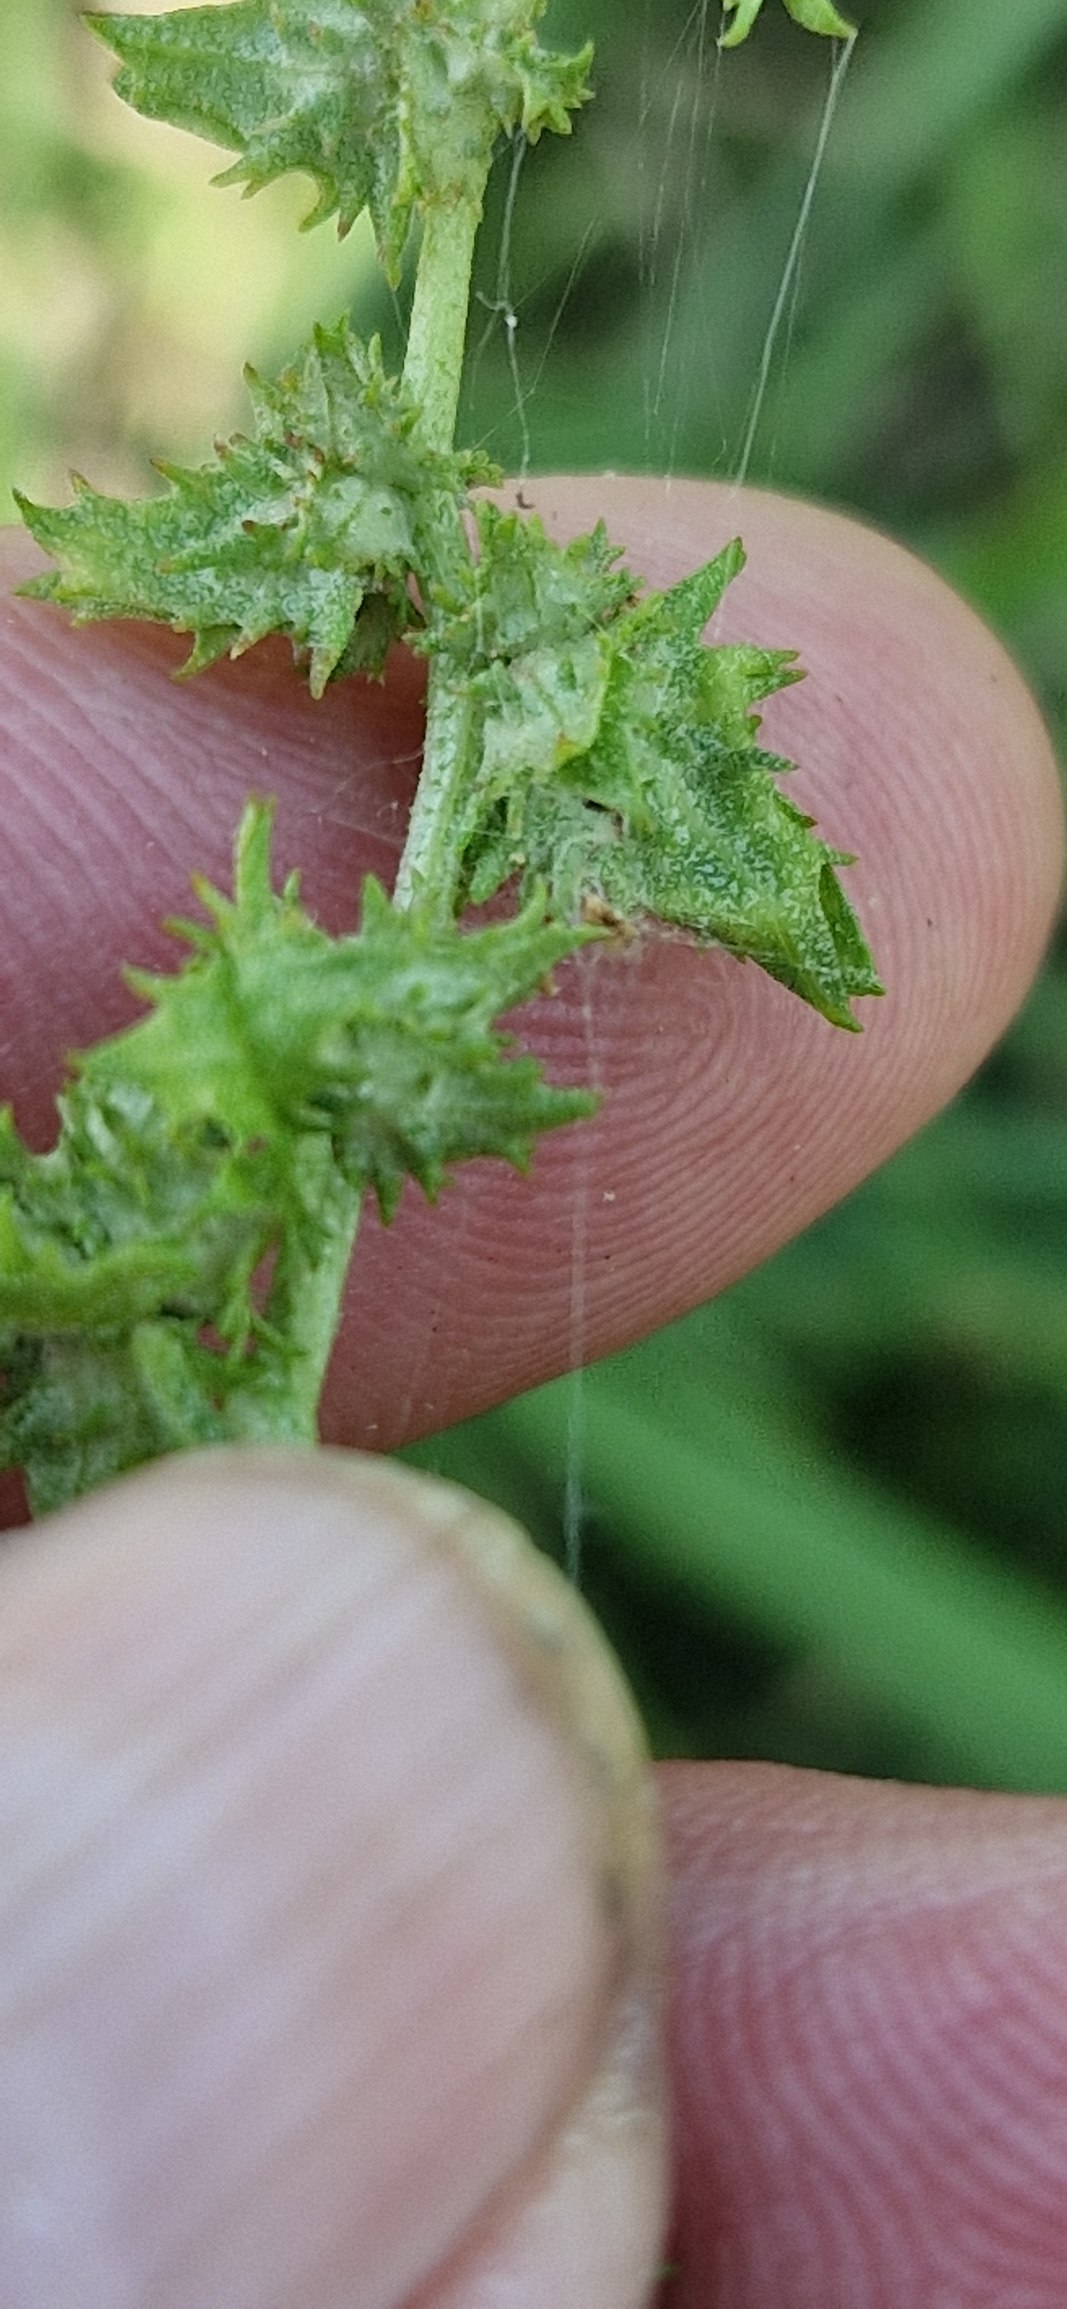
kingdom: Plantae
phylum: Tracheophyta
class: Magnoliopsida
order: Caryophyllales
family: Amaranthaceae
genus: Atriplex
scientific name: Atriplex calotheca
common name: Skønbægret mælde
